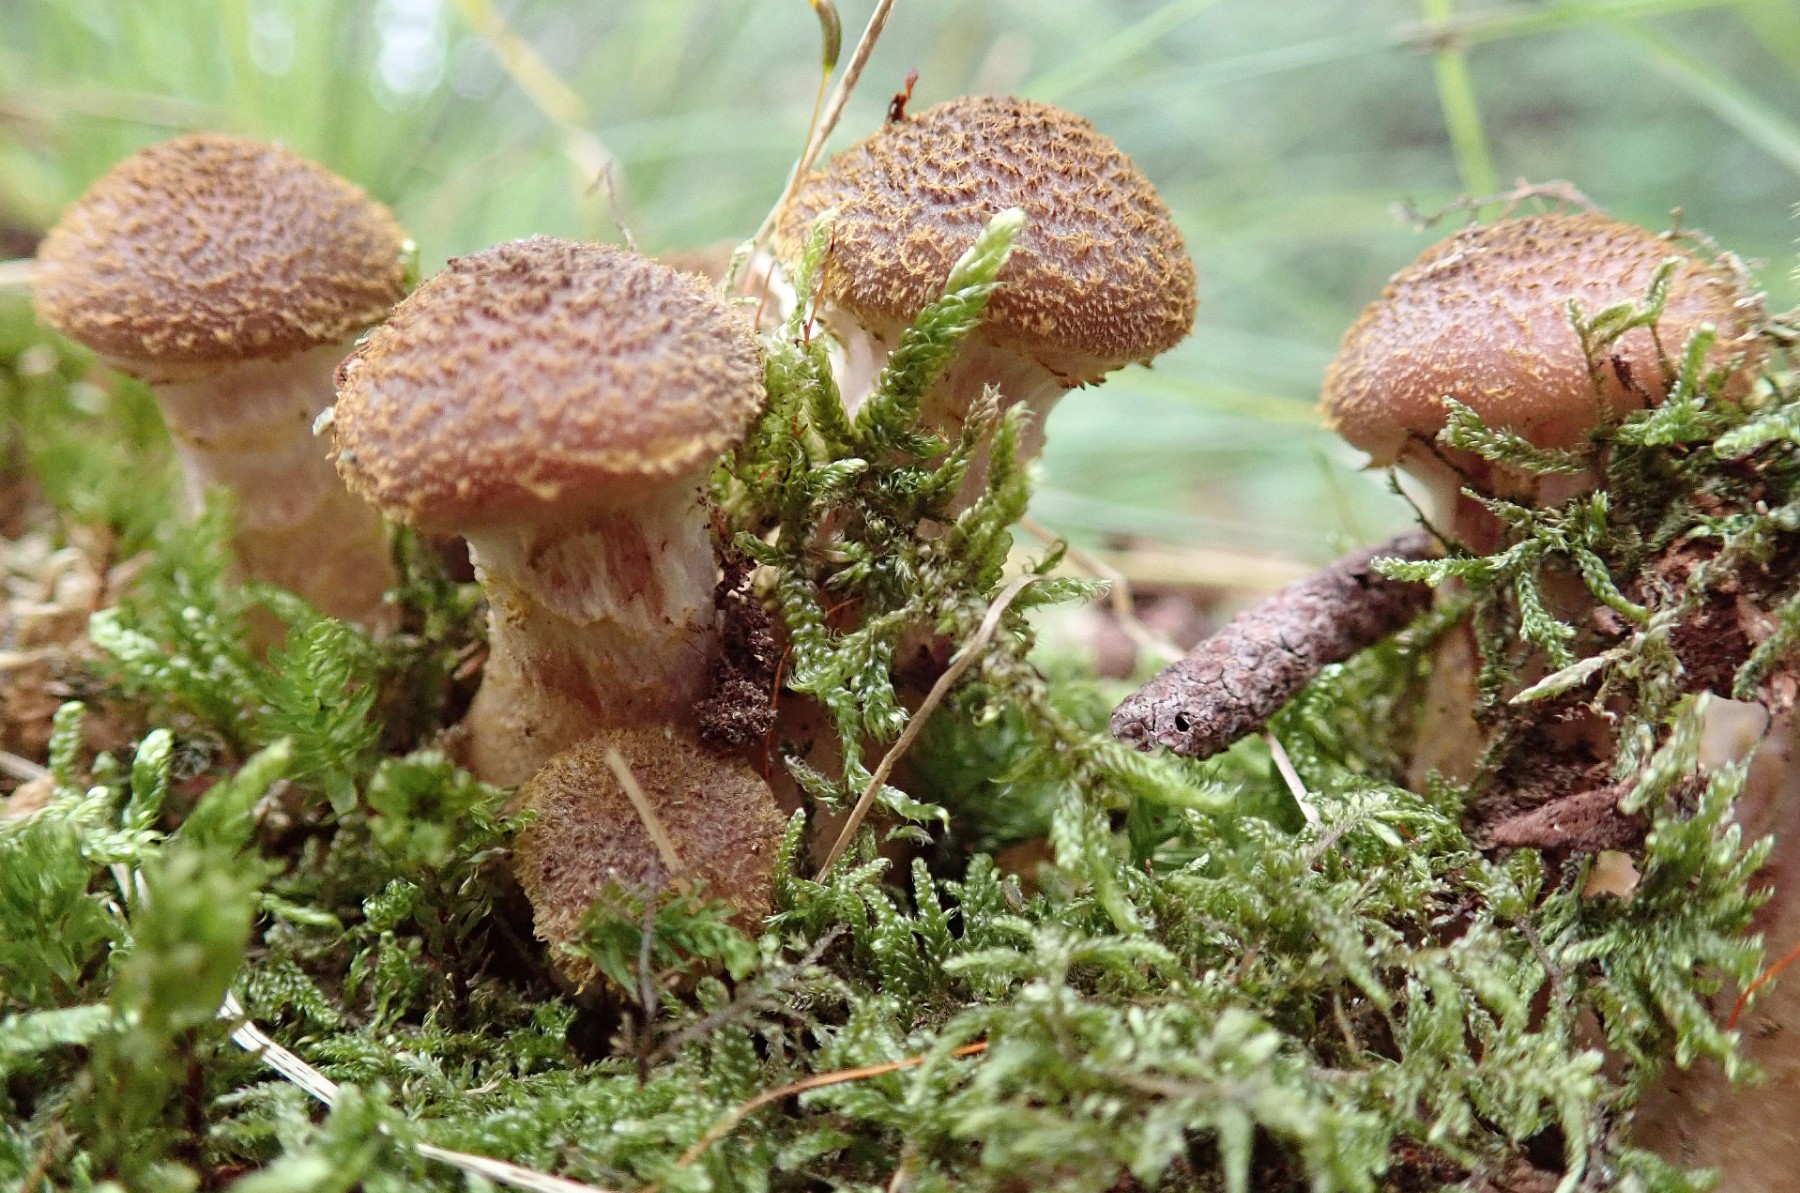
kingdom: Fungi
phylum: Basidiomycota
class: Agaricomycetes
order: Agaricales
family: Physalacriaceae
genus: Armillaria
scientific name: Armillaria lutea
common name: køllestokket honningsvamp
